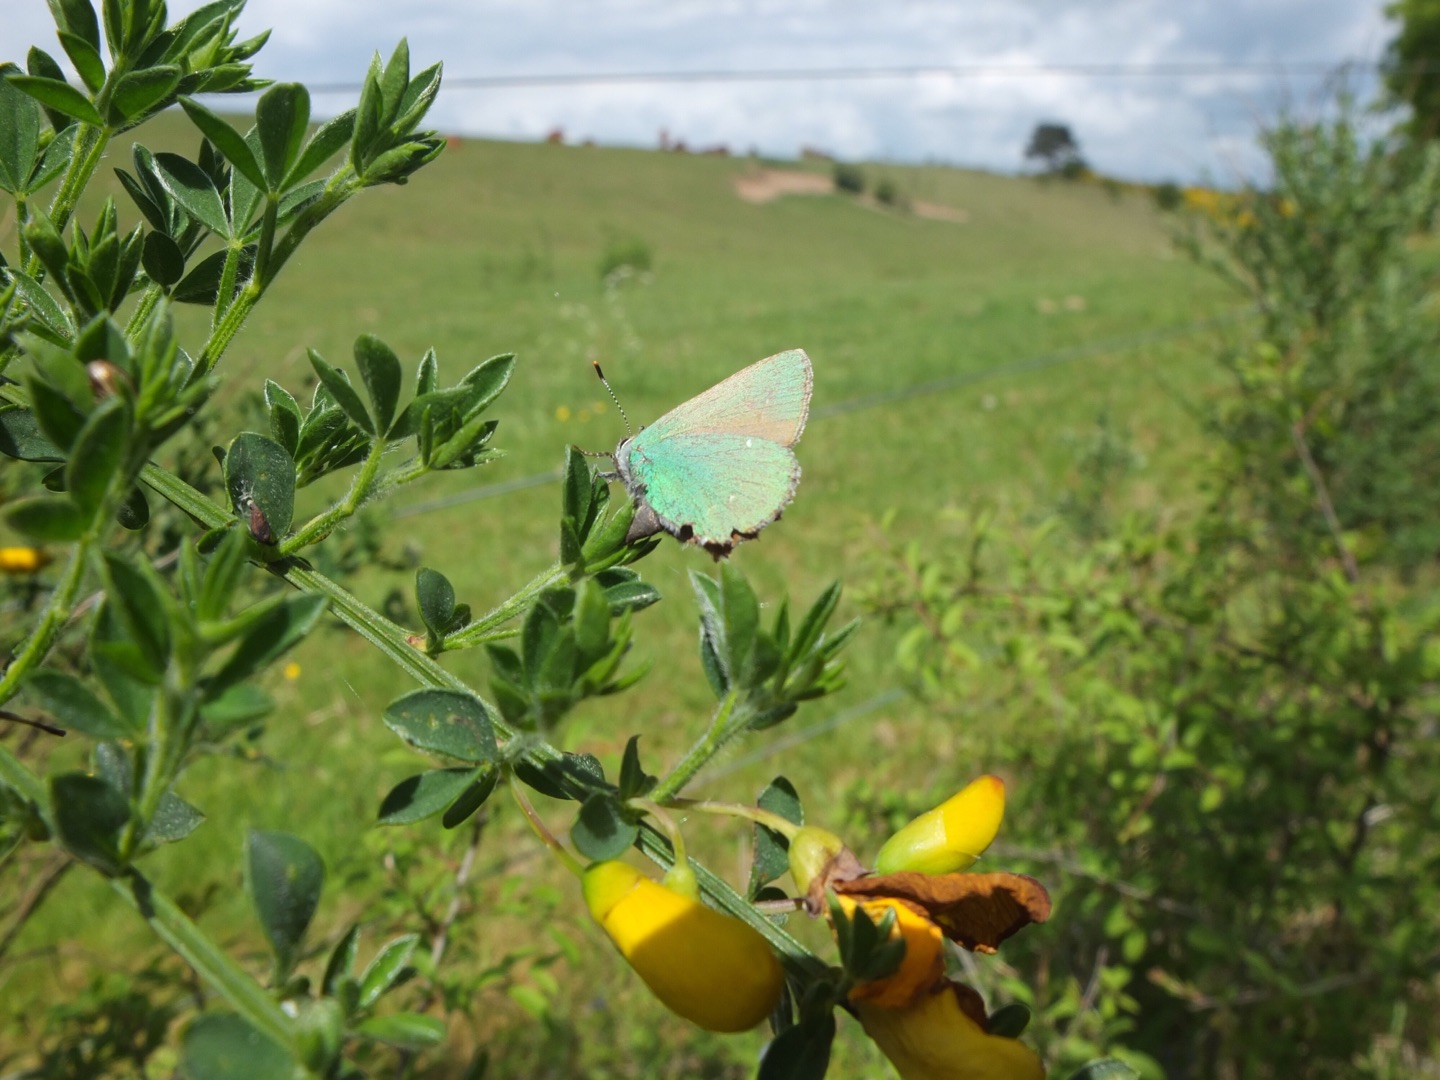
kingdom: Animalia
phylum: Arthropoda
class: Insecta
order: Lepidoptera
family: Lycaenidae
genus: Callophrys
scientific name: Callophrys rubi
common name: Grøn busksommerfugl
